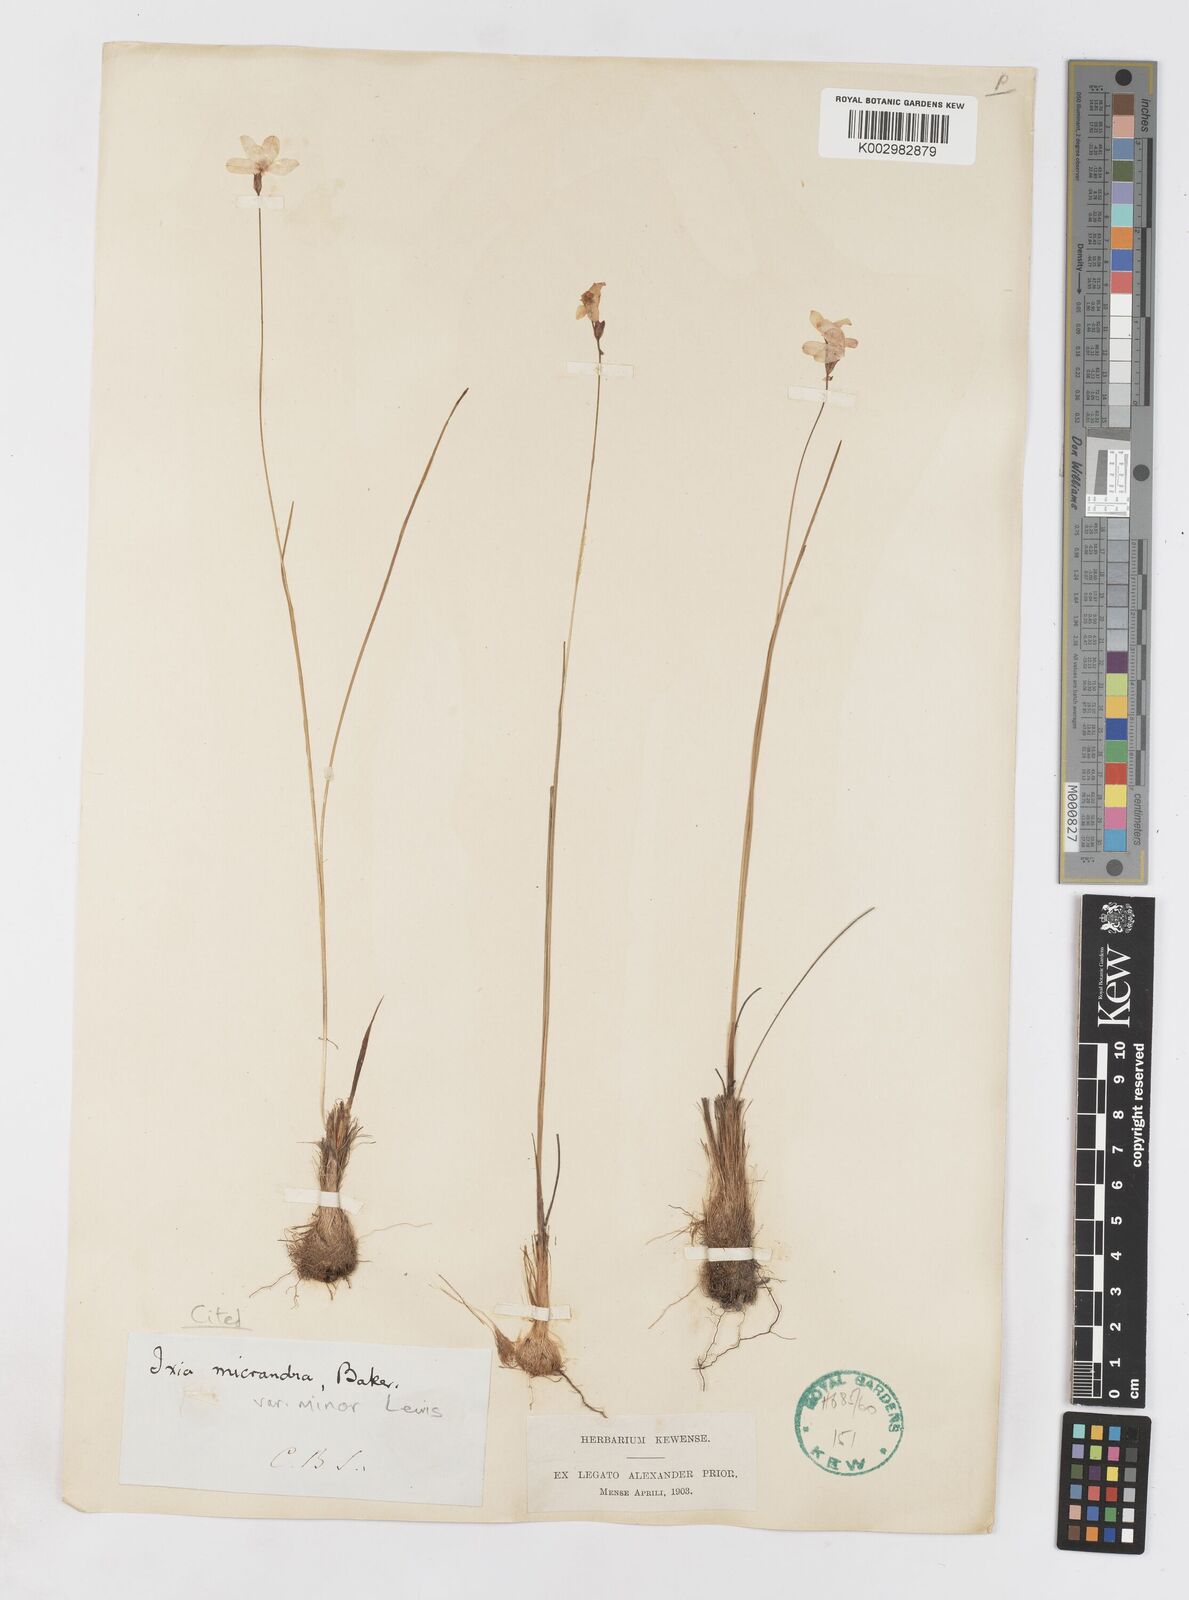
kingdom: Plantae
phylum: Tracheophyta
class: Liliopsida
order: Asparagales
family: Iridaceae
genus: Ixia
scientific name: Ixia minor
